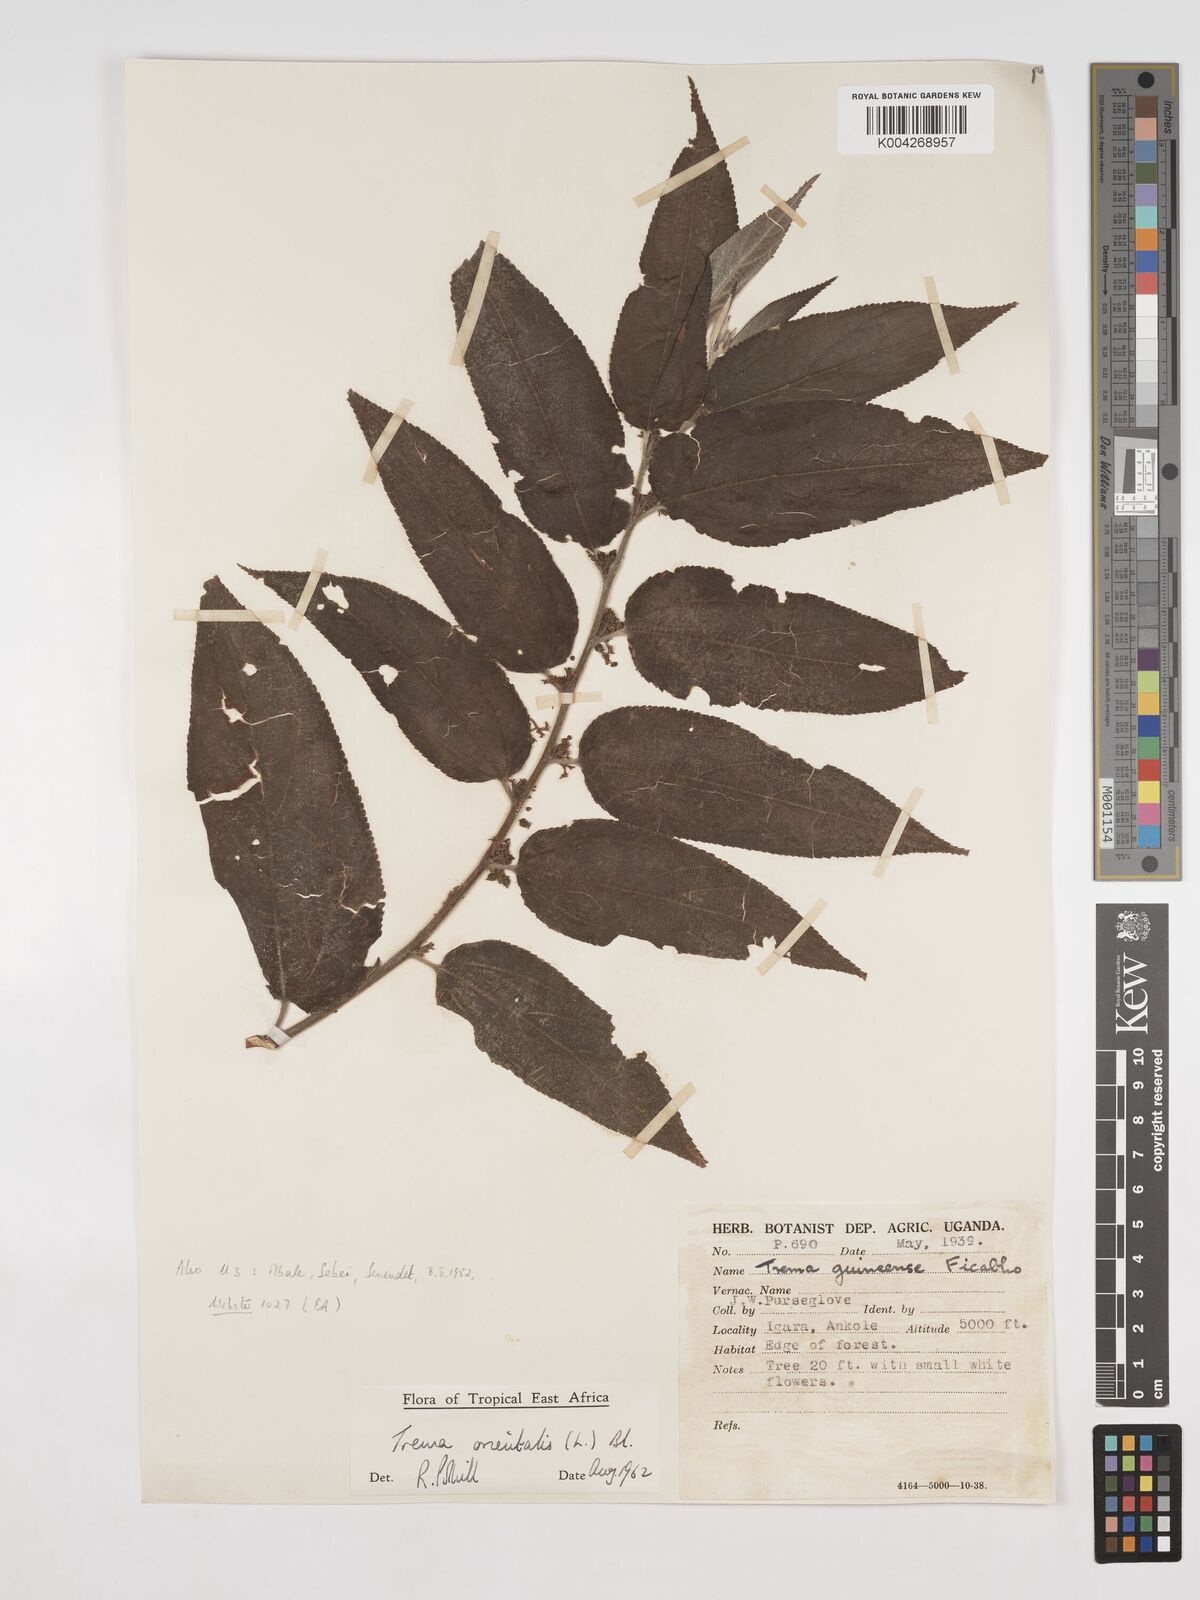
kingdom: Plantae
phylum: Tracheophyta
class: Magnoliopsida
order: Rosales
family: Cannabaceae
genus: Trema
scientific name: Trema orientale
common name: Indian charcoal tree
